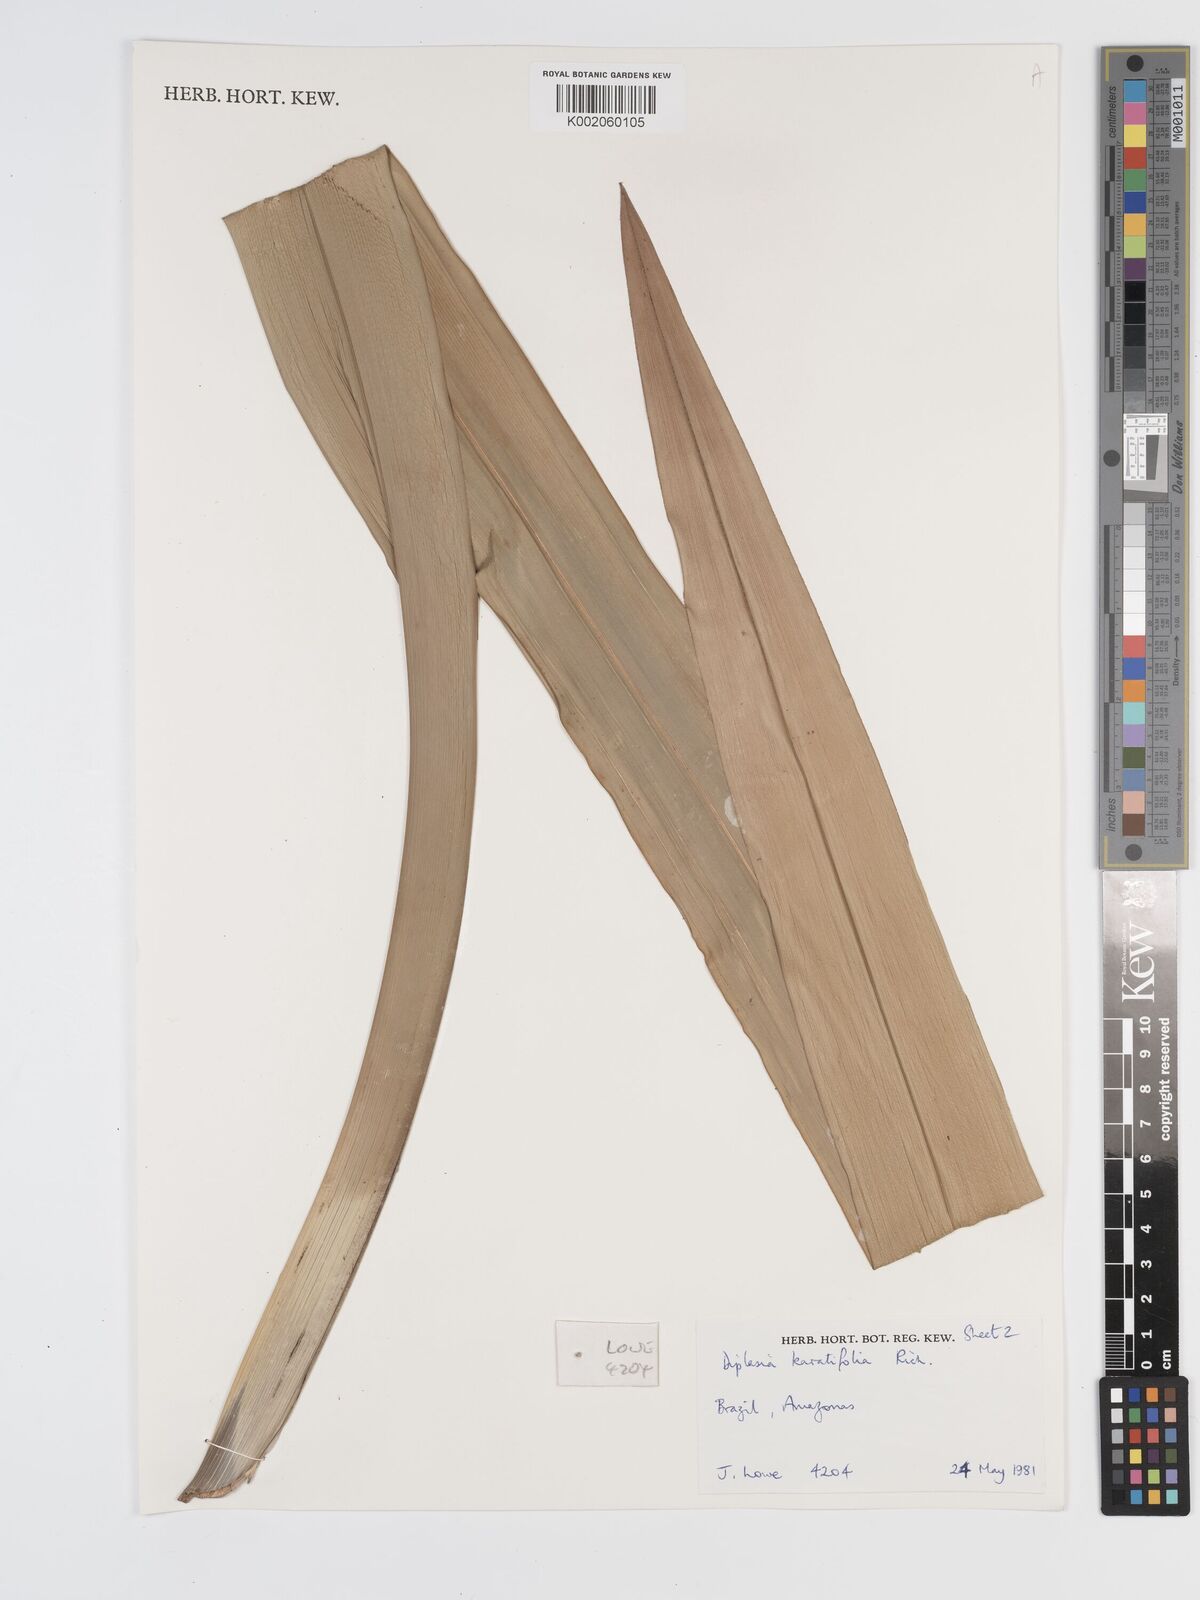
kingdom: Plantae
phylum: Tracheophyta
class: Liliopsida
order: Poales
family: Cyperaceae
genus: Diplasia
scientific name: Diplasia karatifolia
